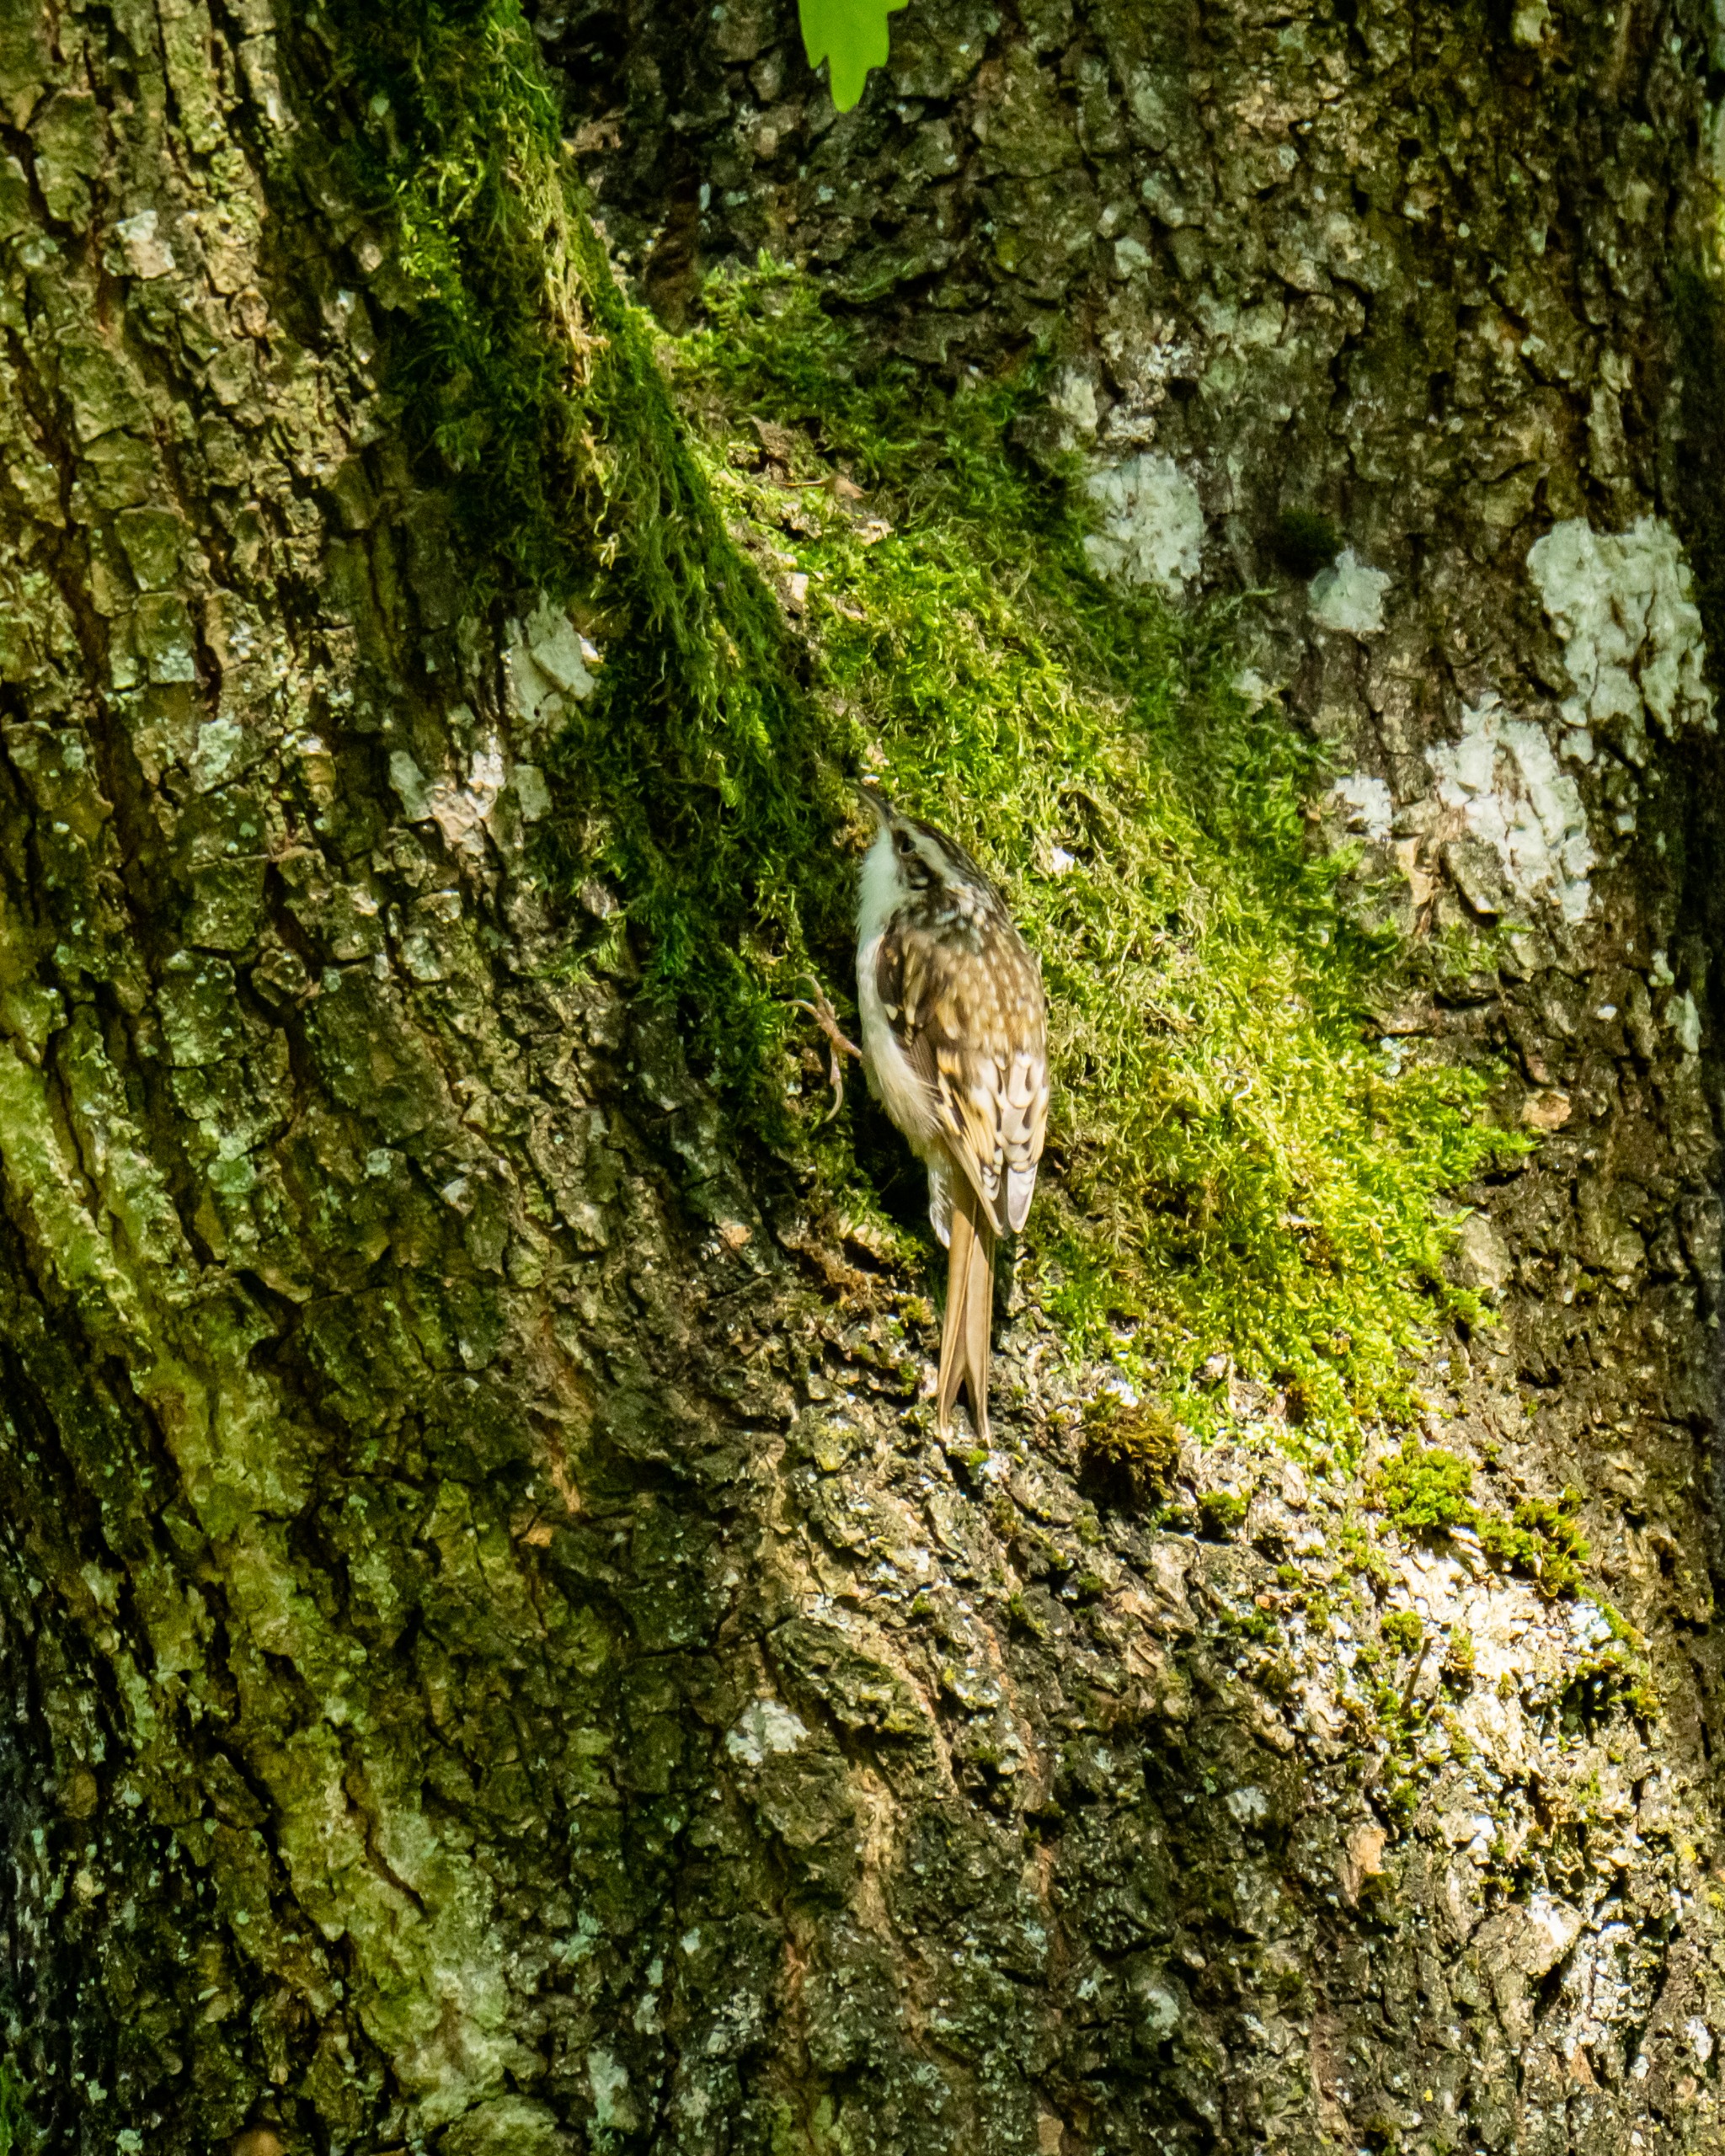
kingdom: Animalia
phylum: Chordata
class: Aves
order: Passeriformes
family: Certhiidae
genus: Certhia
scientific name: Certhia familiaris
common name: Træløber
